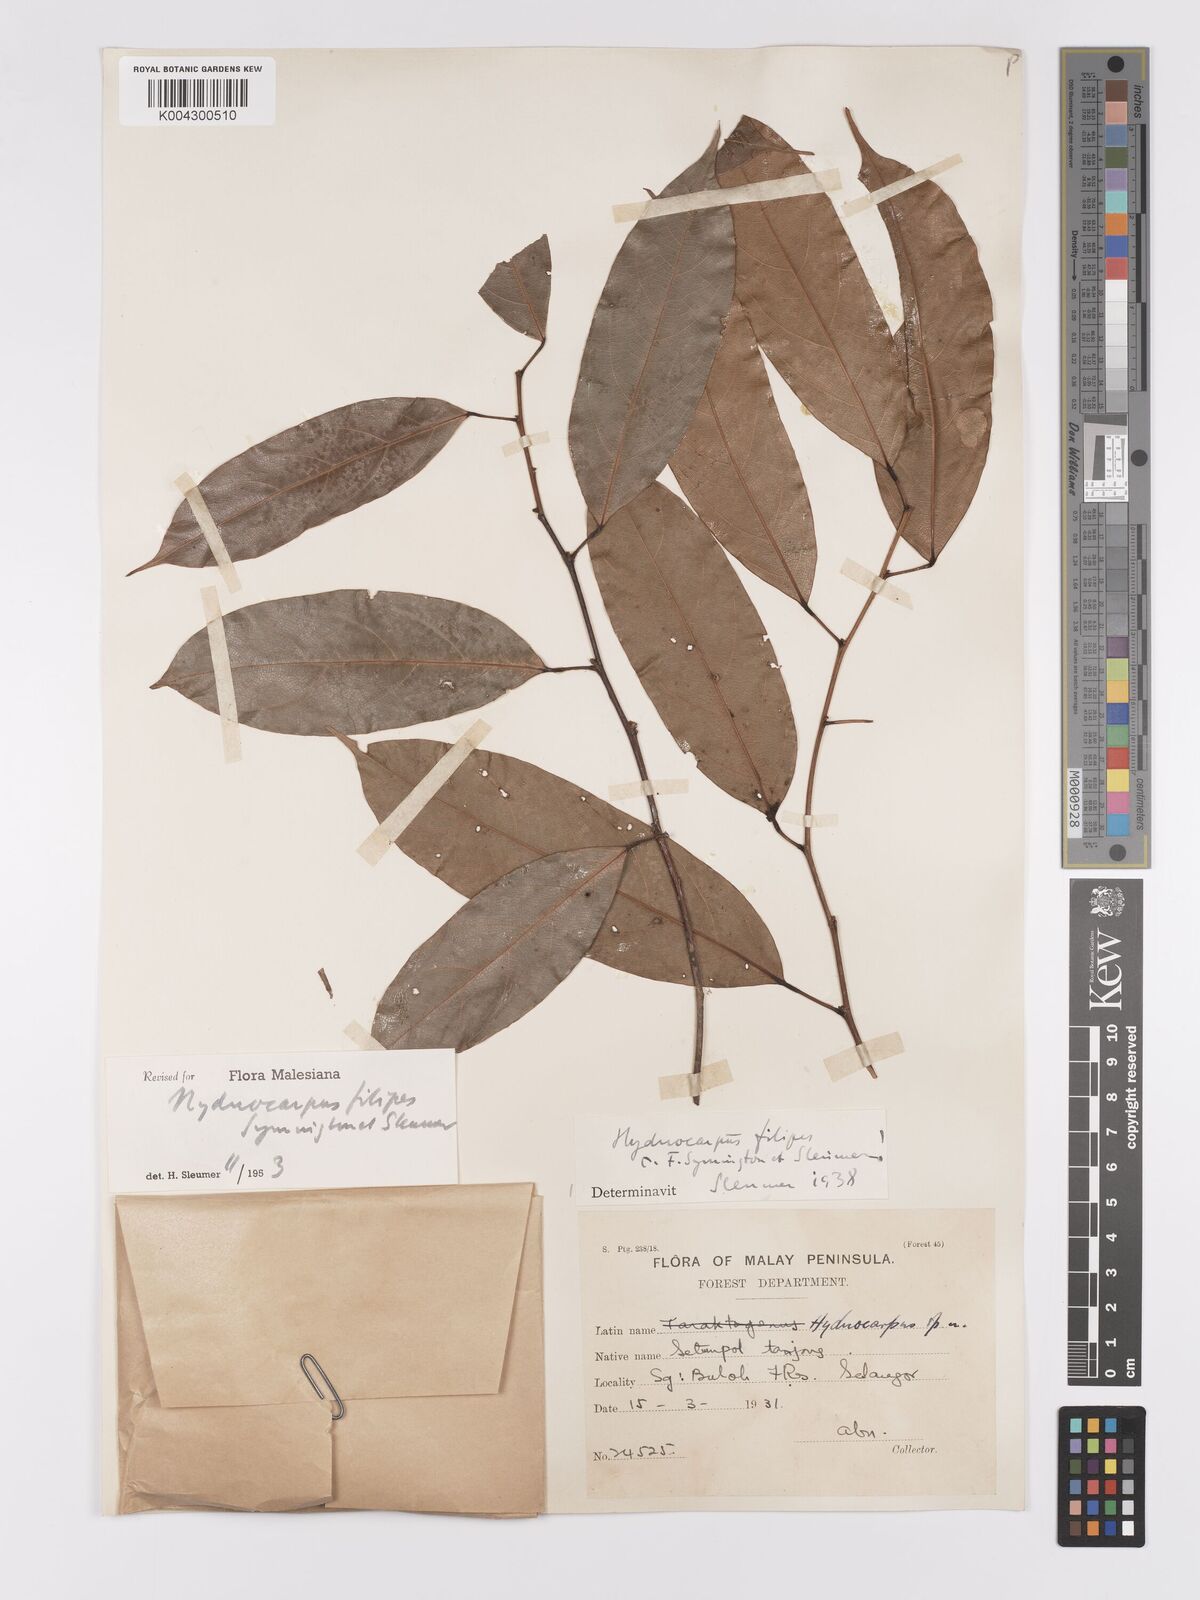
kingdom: Plantae
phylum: Tracheophyta
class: Magnoliopsida
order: Malpighiales
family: Achariaceae
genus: Hydnocarpus
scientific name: Hydnocarpus filipes
